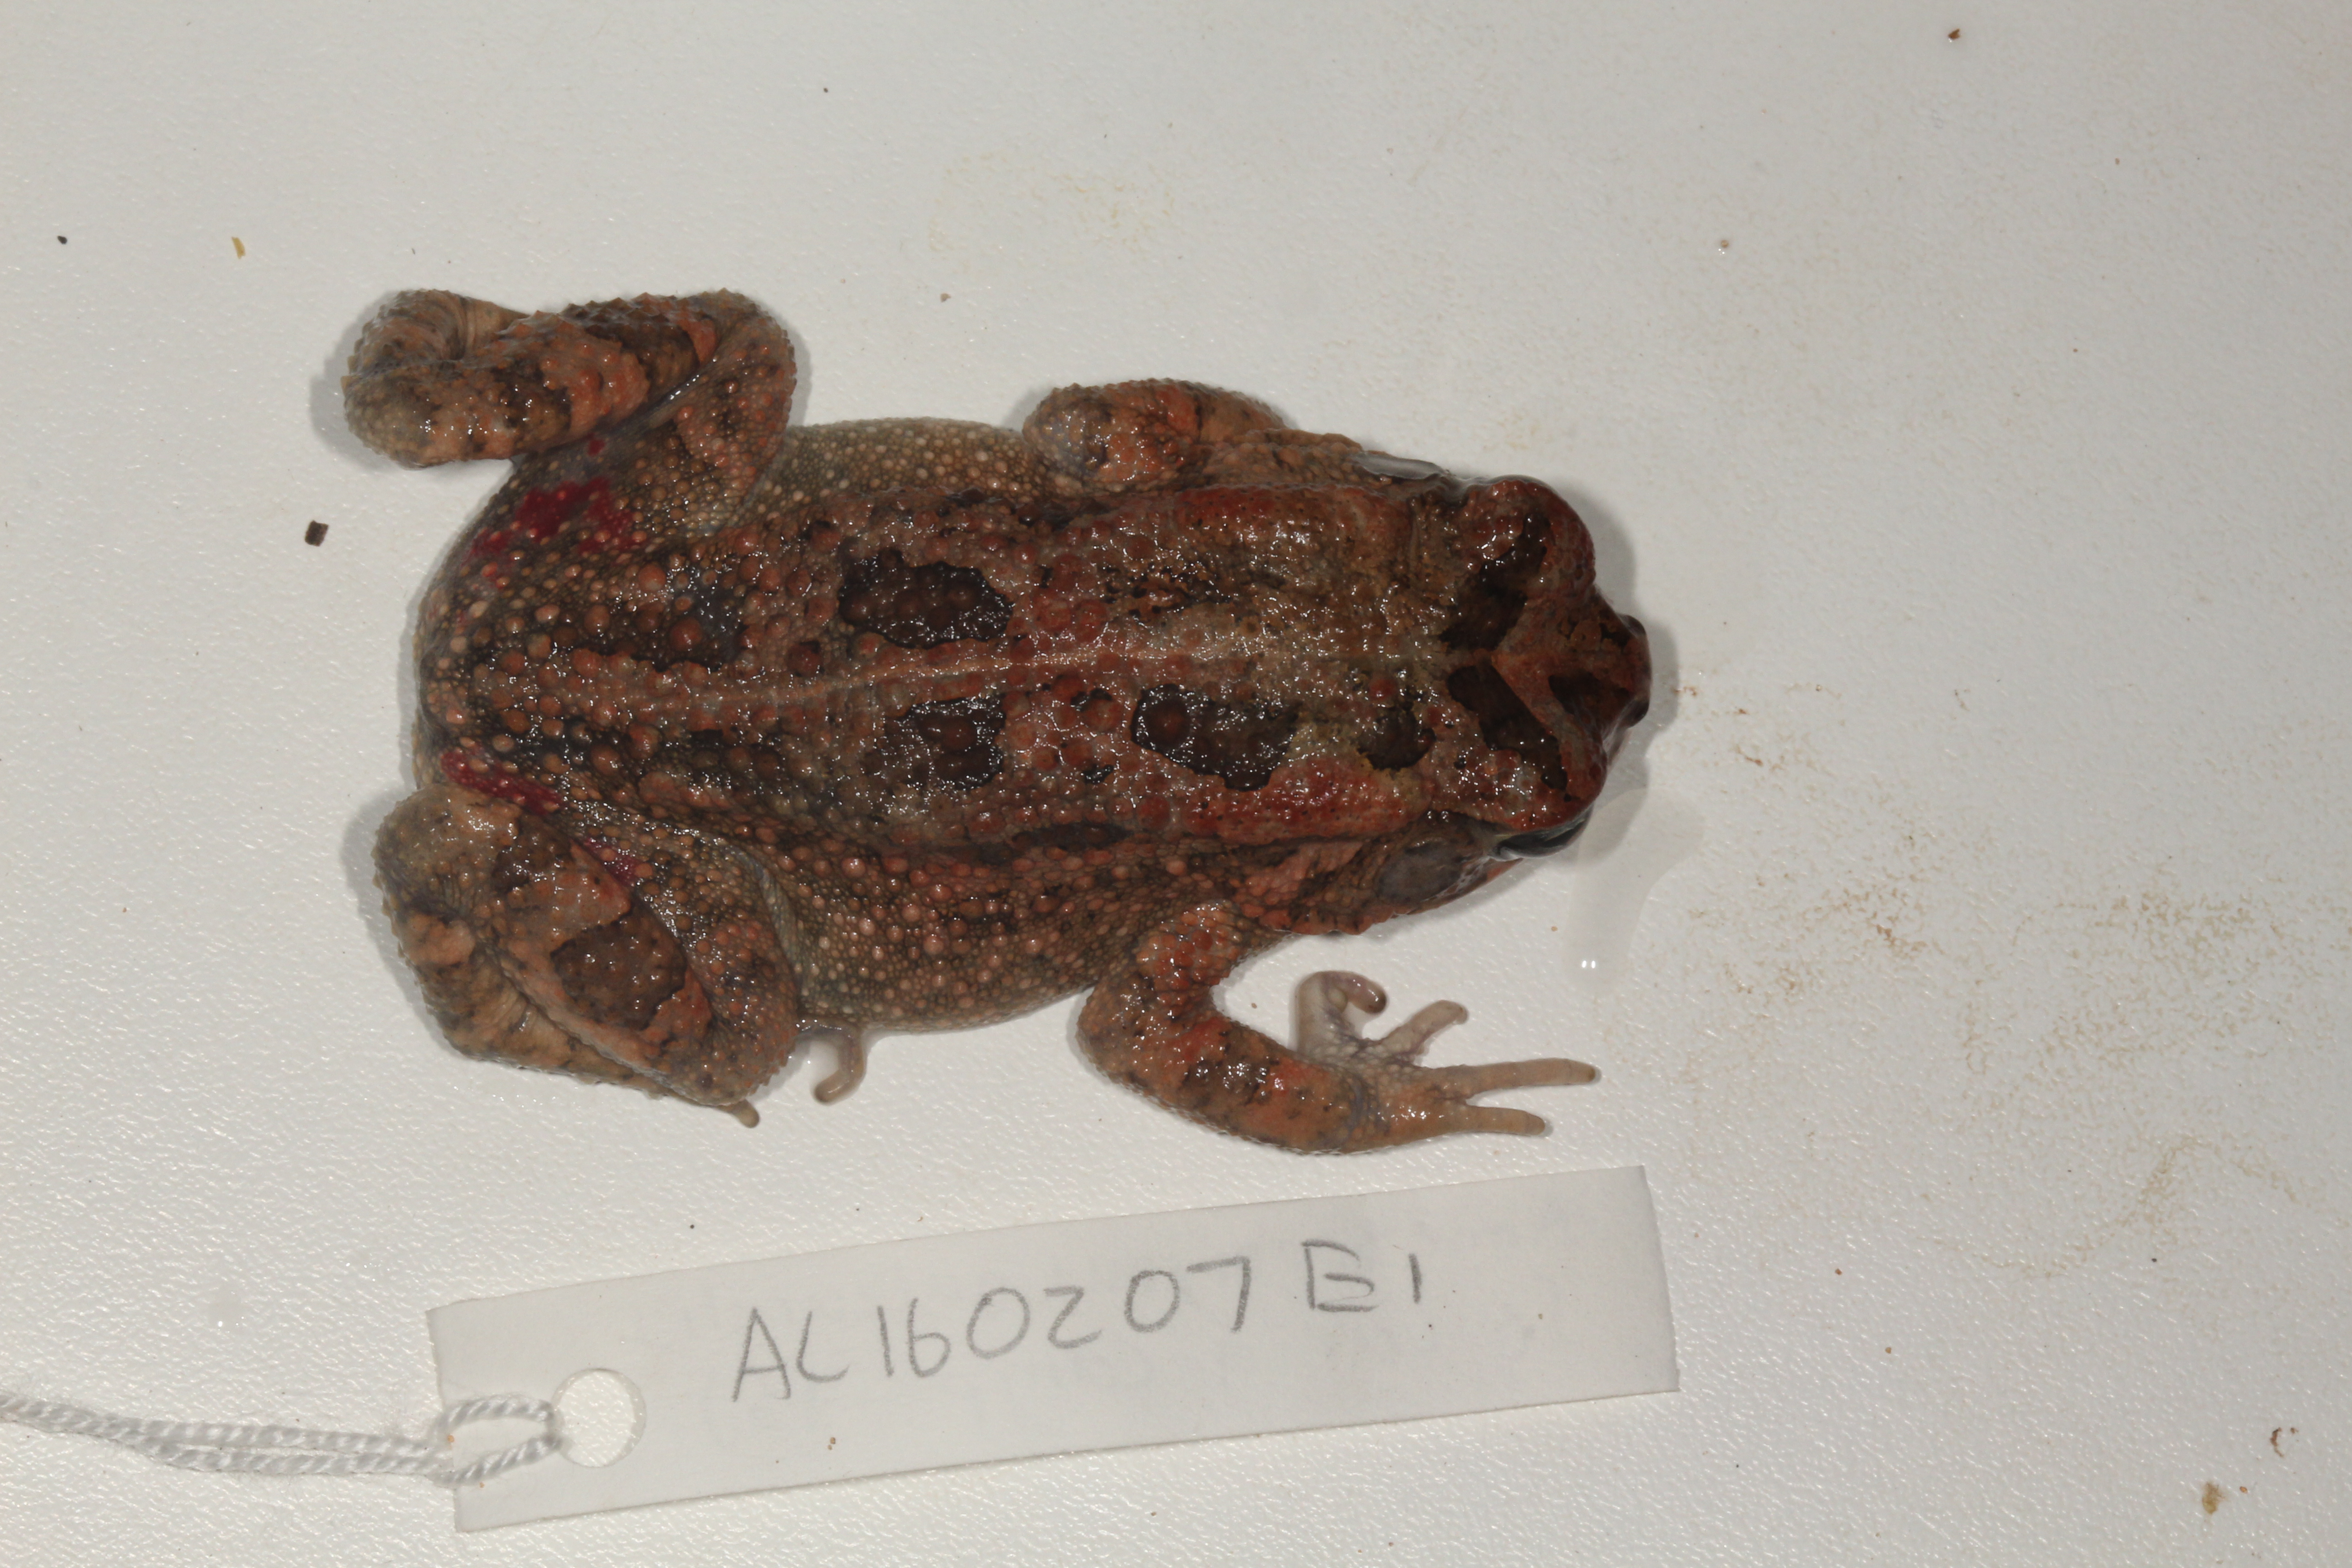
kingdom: Animalia
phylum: Chordata
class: Amphibia
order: Anura
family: Bufonidae
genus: Sclerophrys
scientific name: Sclerophrys gutturalis
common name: African common toad
